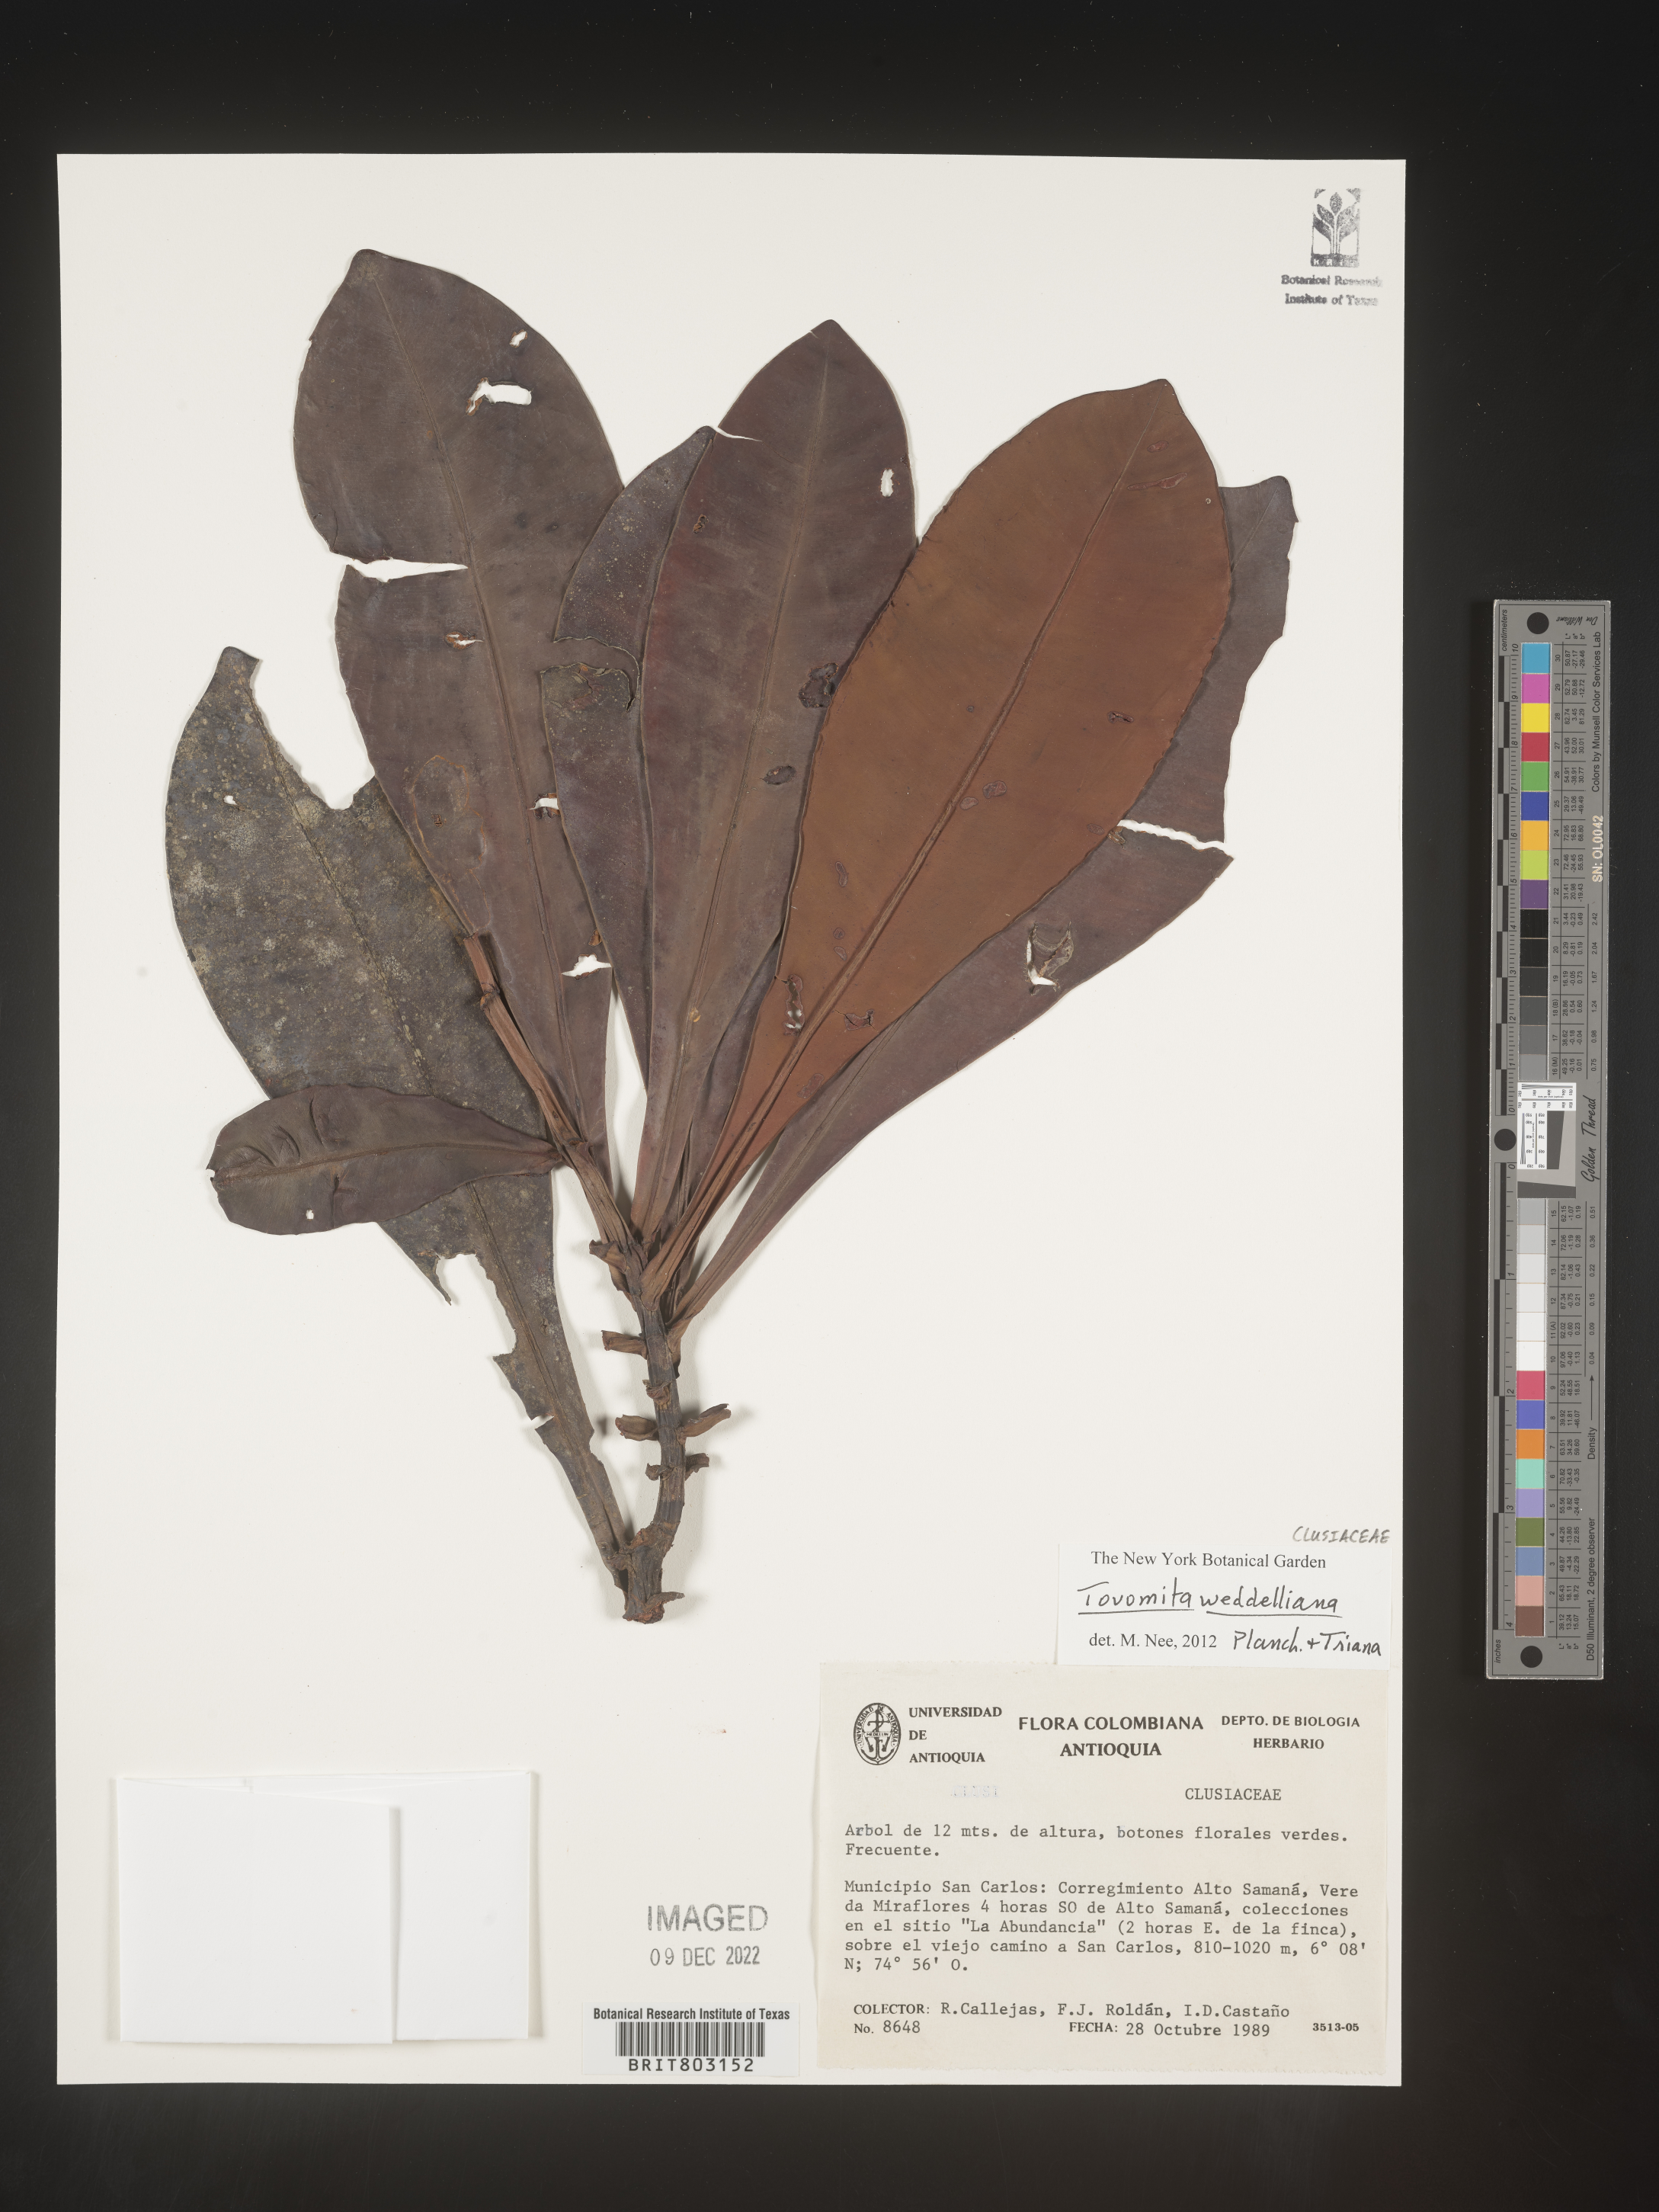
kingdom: Plantae
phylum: Tracheophyta
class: Magnoliopsida
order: Malpighiales
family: Clusiaceae
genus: Arawakia
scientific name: Arawakia weddelliana
